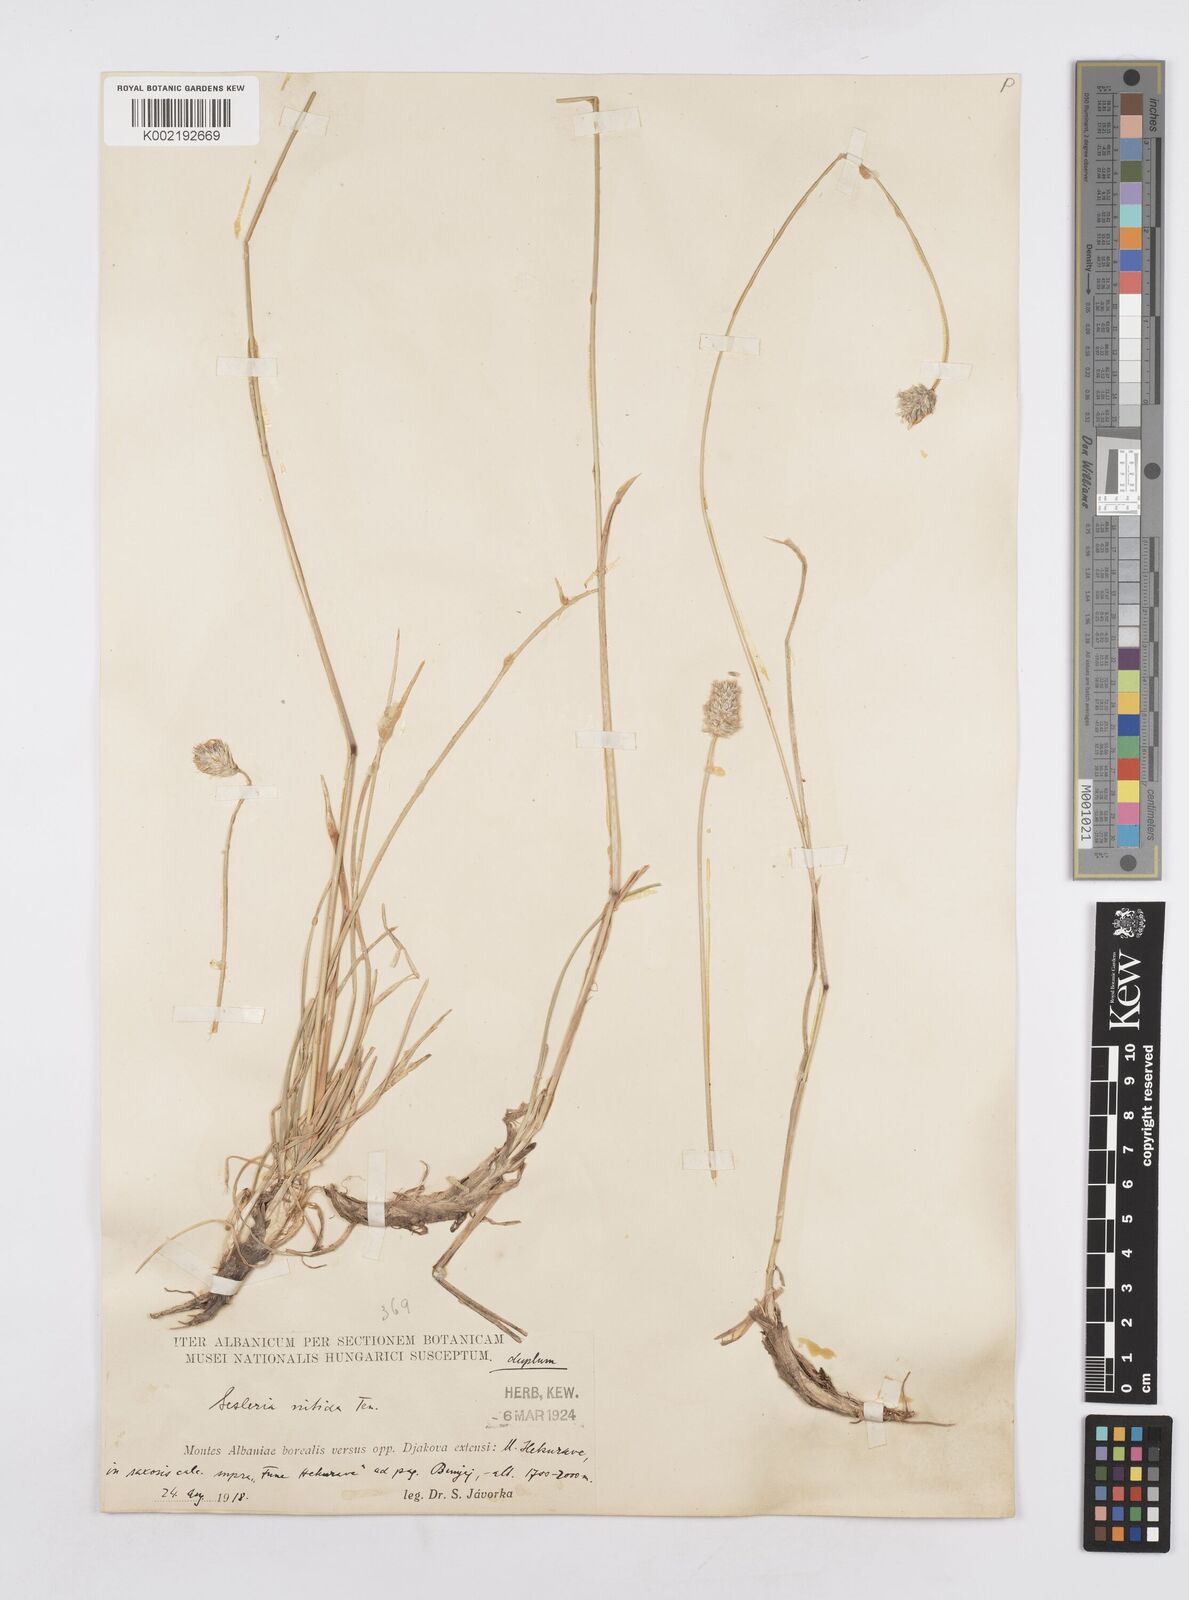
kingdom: Plantae
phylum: Tracheophyta
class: Liliopsida
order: Poales
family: Poaceae
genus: Sesleria
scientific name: Sesleria robusta
